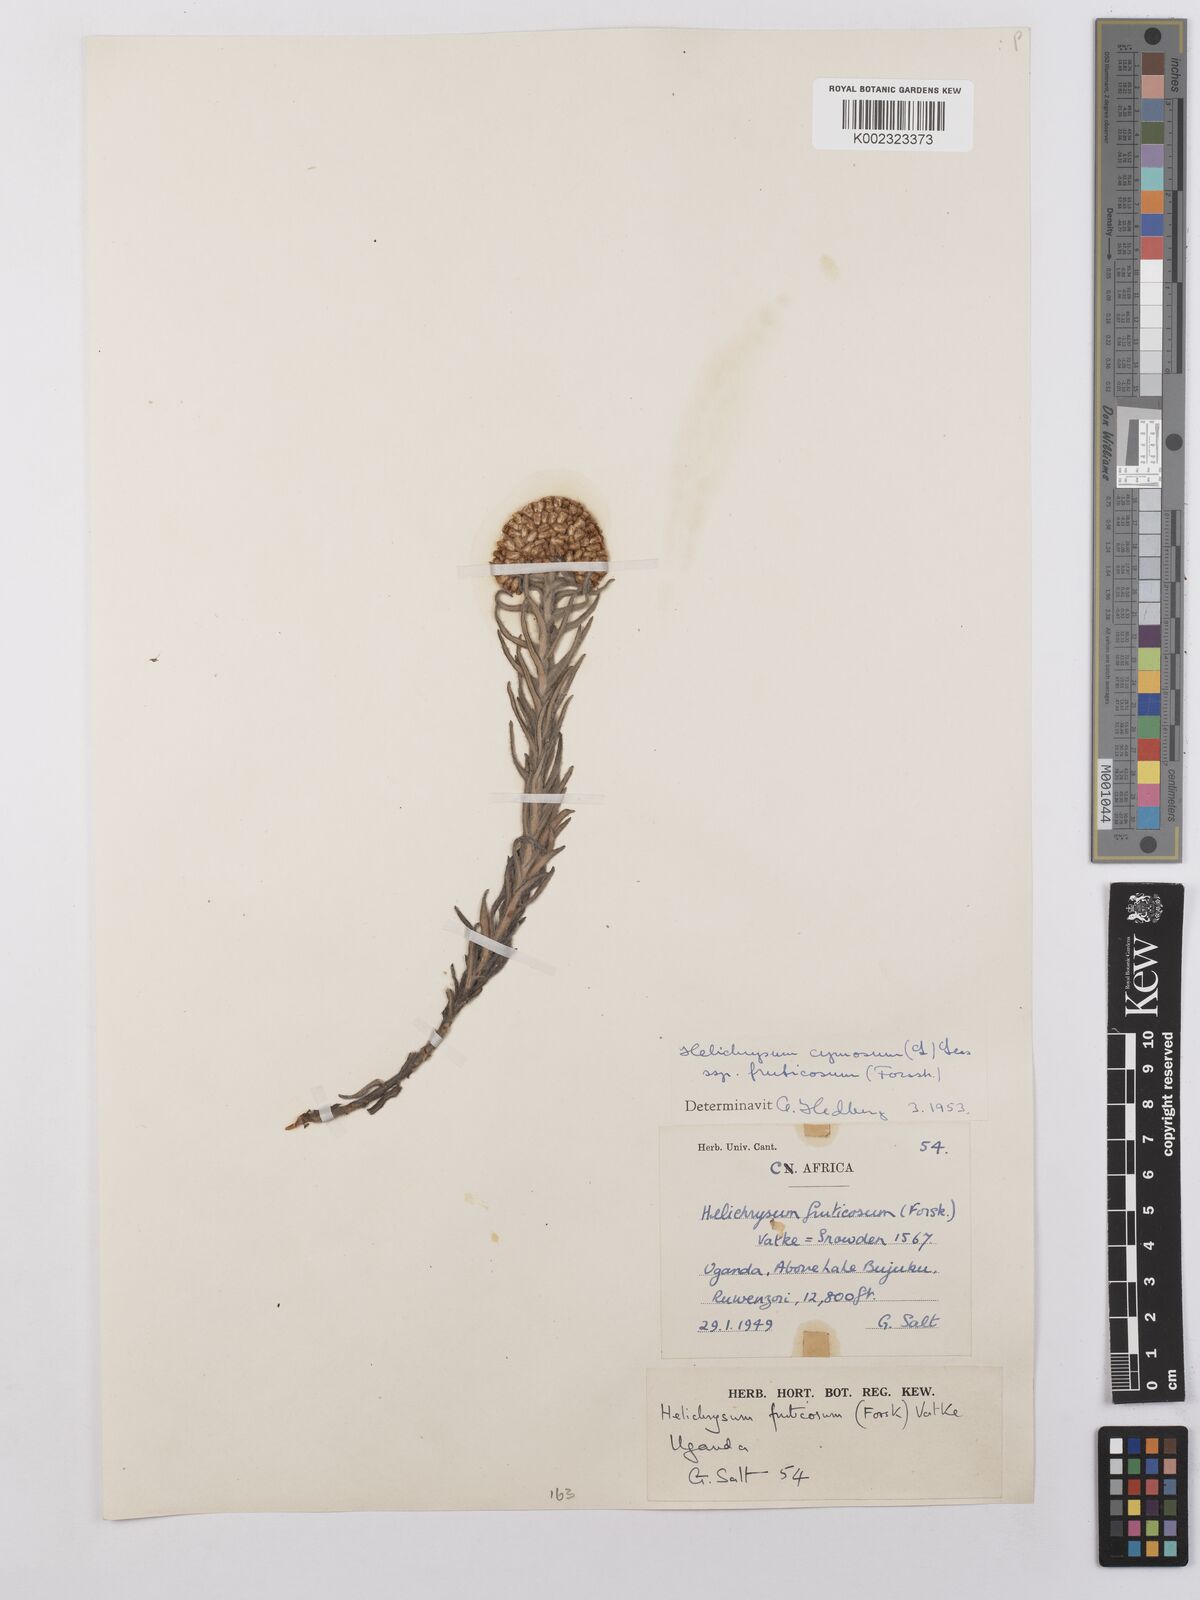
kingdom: Plantae
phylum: Tracheophyta
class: Magnoliopsida
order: Asterales
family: Asteraceae
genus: Helichrysum
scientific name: Helichrysum forskahlii
